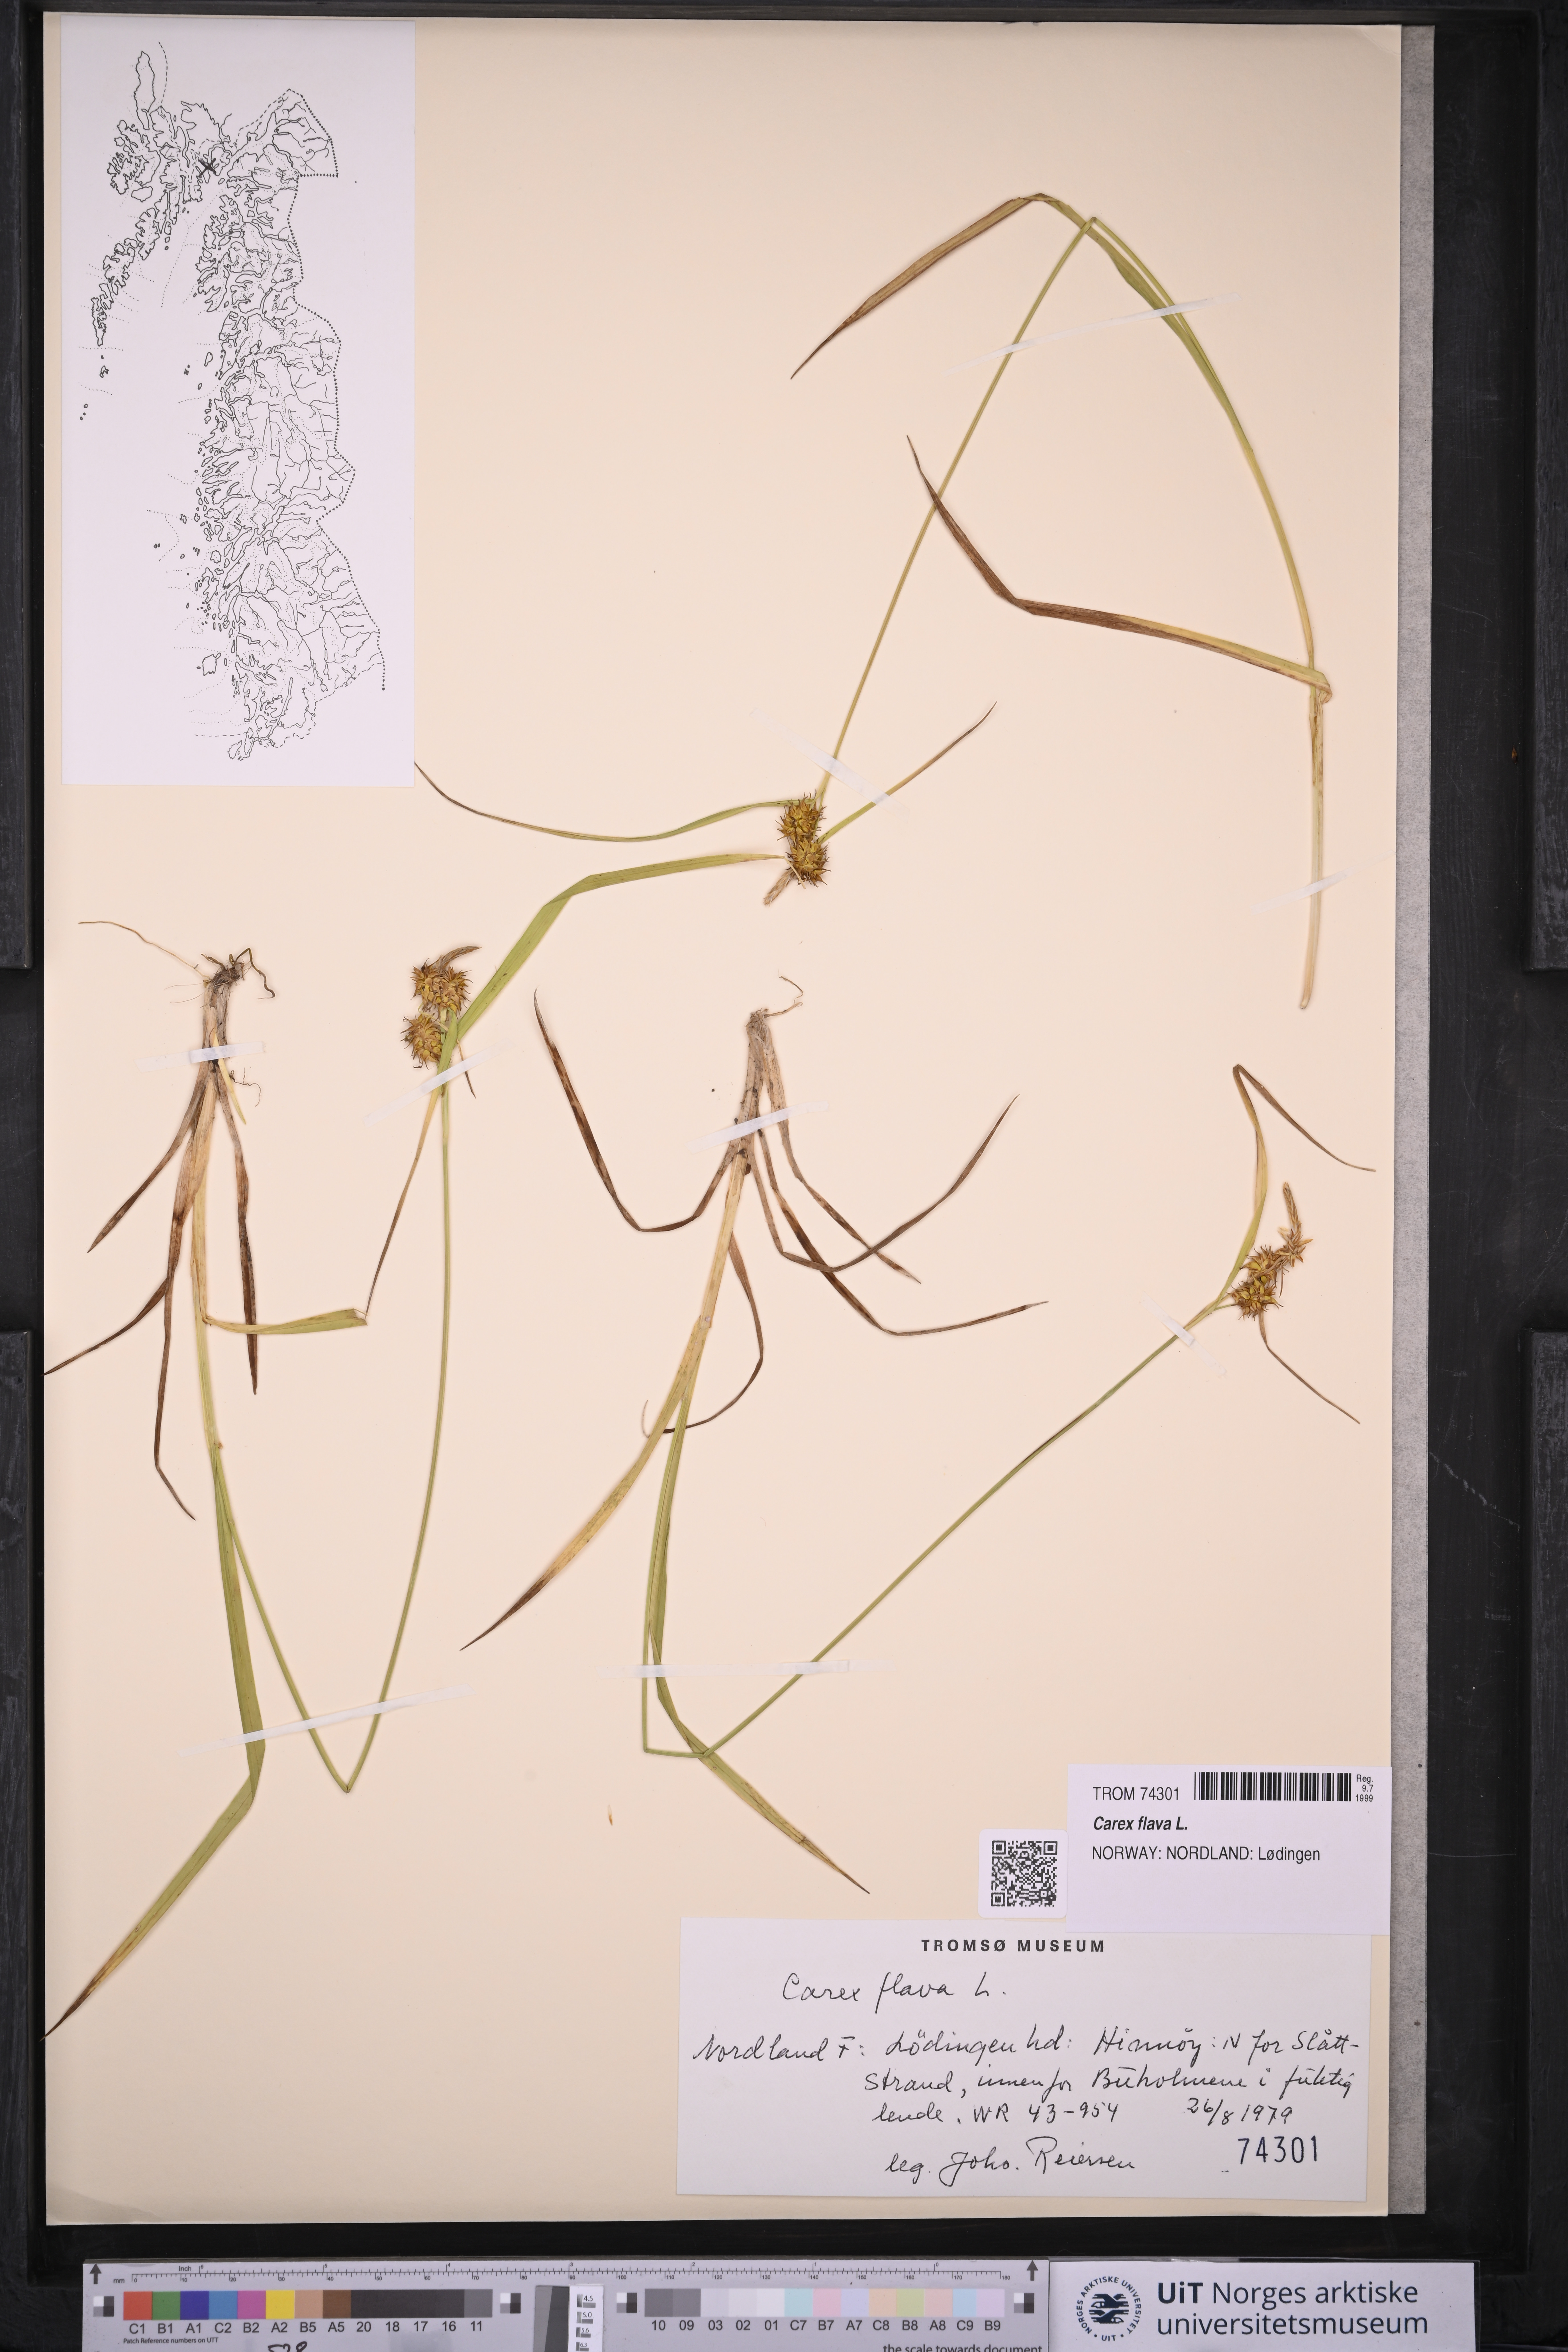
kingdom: Plantae
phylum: Tracheophyta
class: Liliopsida
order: Poales
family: Cyperaceae
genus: Carex
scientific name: Carex flava
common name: Large yellow-sedge
